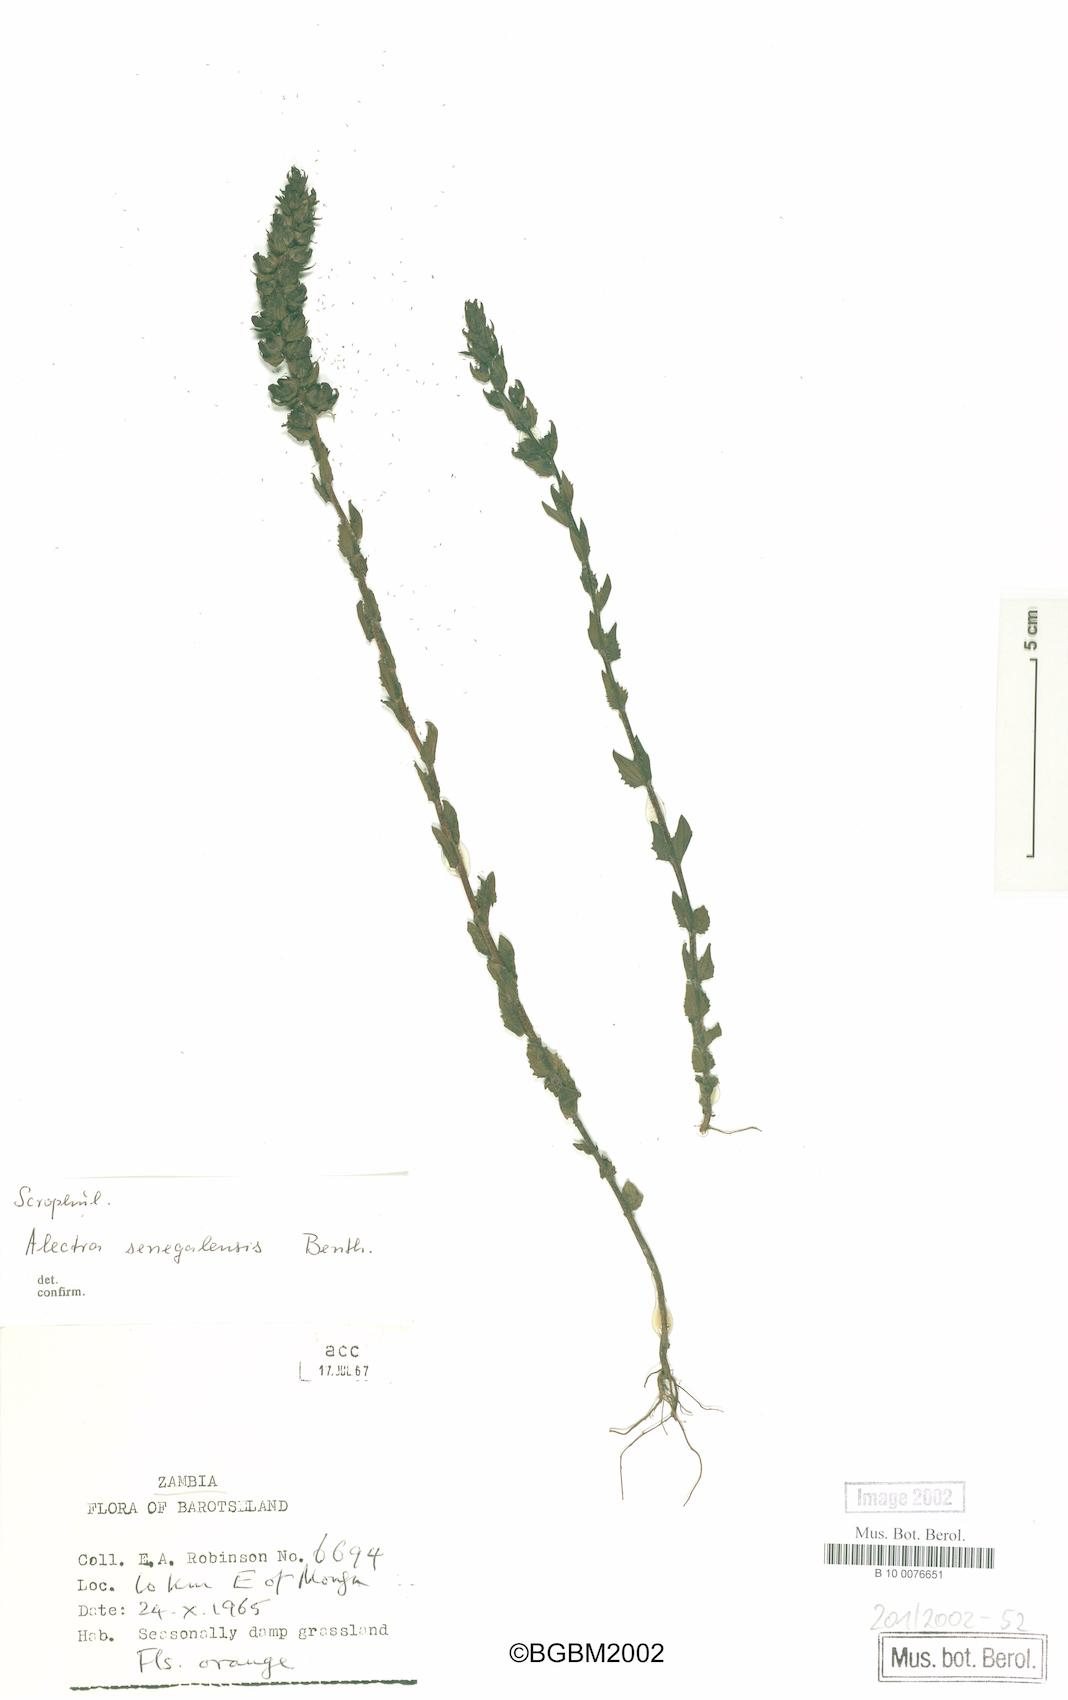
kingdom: Plantae
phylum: Tracheophyta
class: Magnoliopsida
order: Lamiales
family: Orobanchaceae
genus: Alectra
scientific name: Alectra sessiliflora
